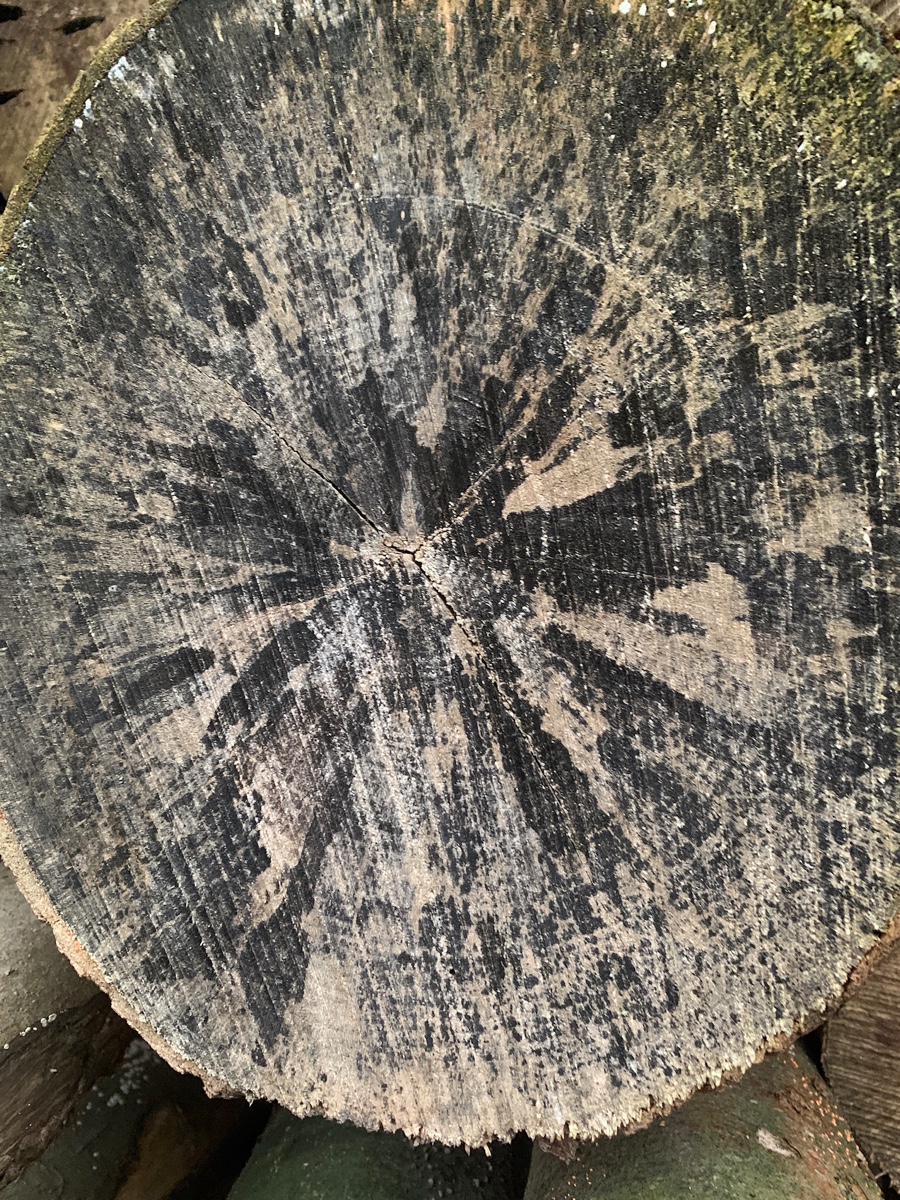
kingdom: Fungi
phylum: Ascomycota
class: Leotiomycetes
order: Helotiales
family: Helotiaceae
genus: Bispora
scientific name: Bispora pallescens
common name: måtte-snitskive
